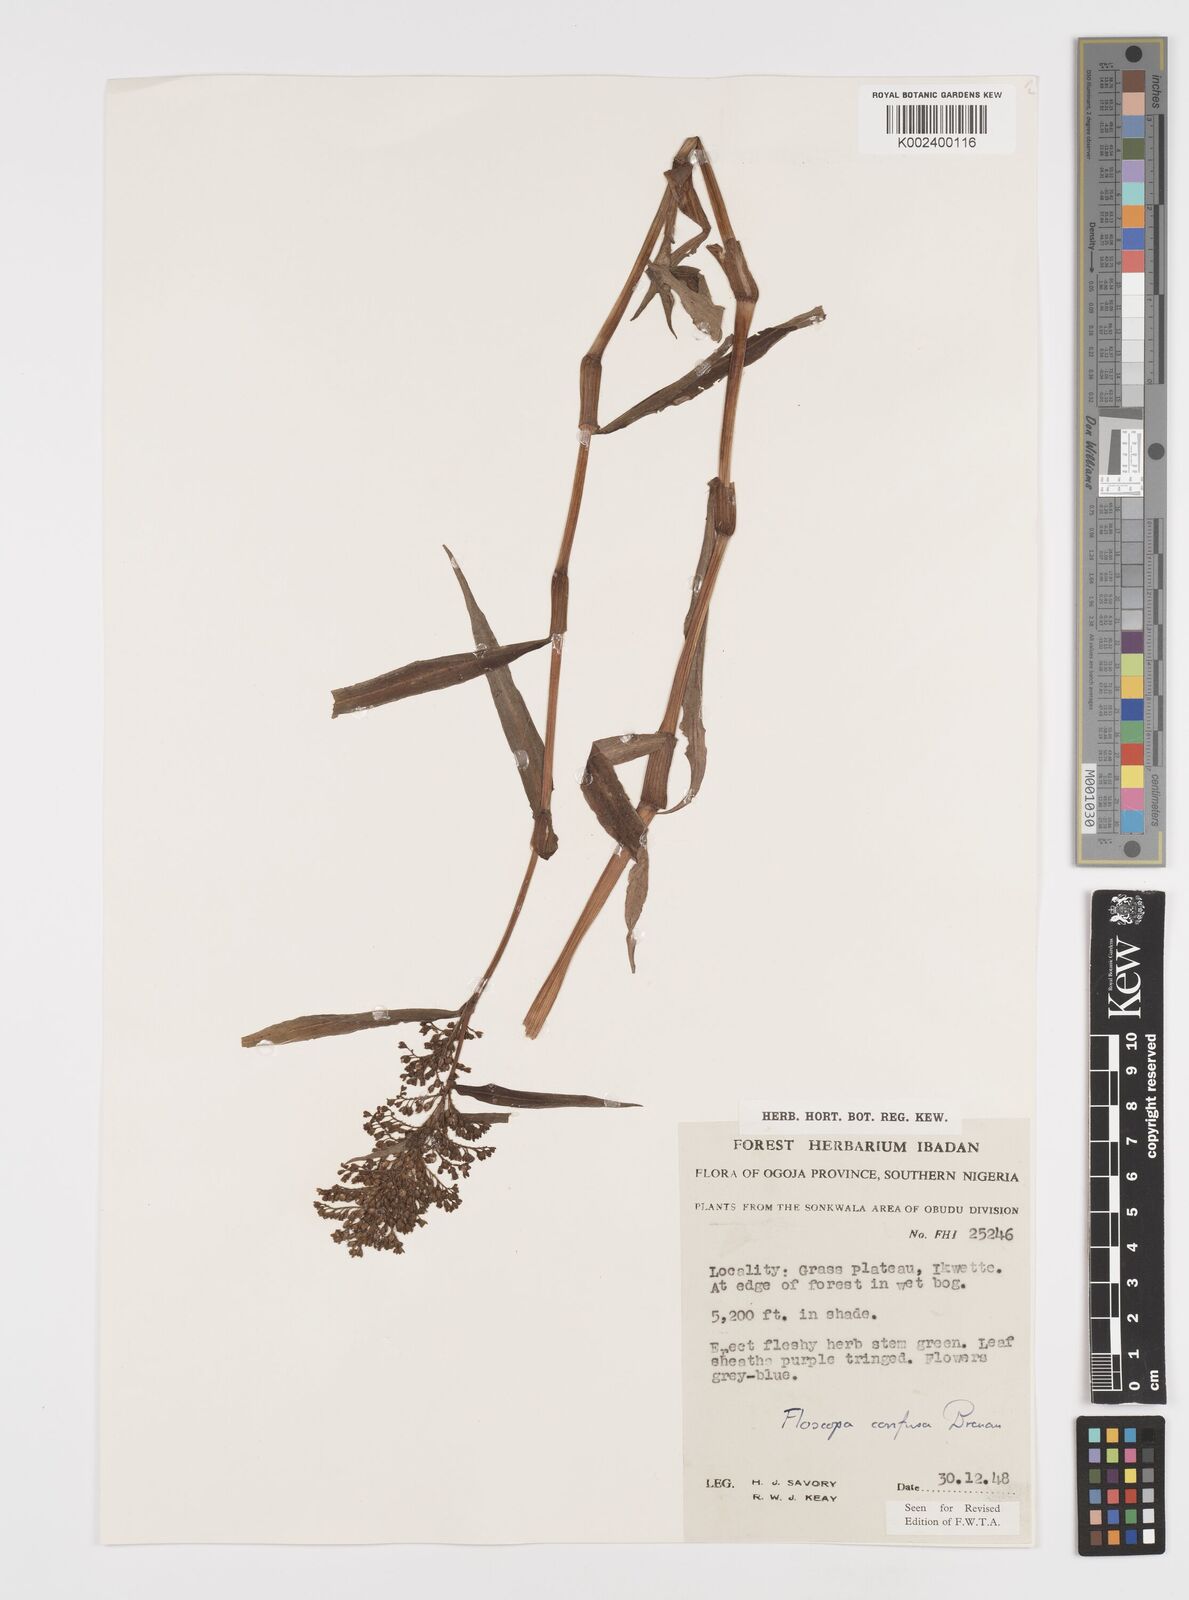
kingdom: Plantae
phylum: Tracheophyta
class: Liliopsida
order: Commelinales
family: Commelinaceae
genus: Floscopa
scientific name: Floscopa confusa
